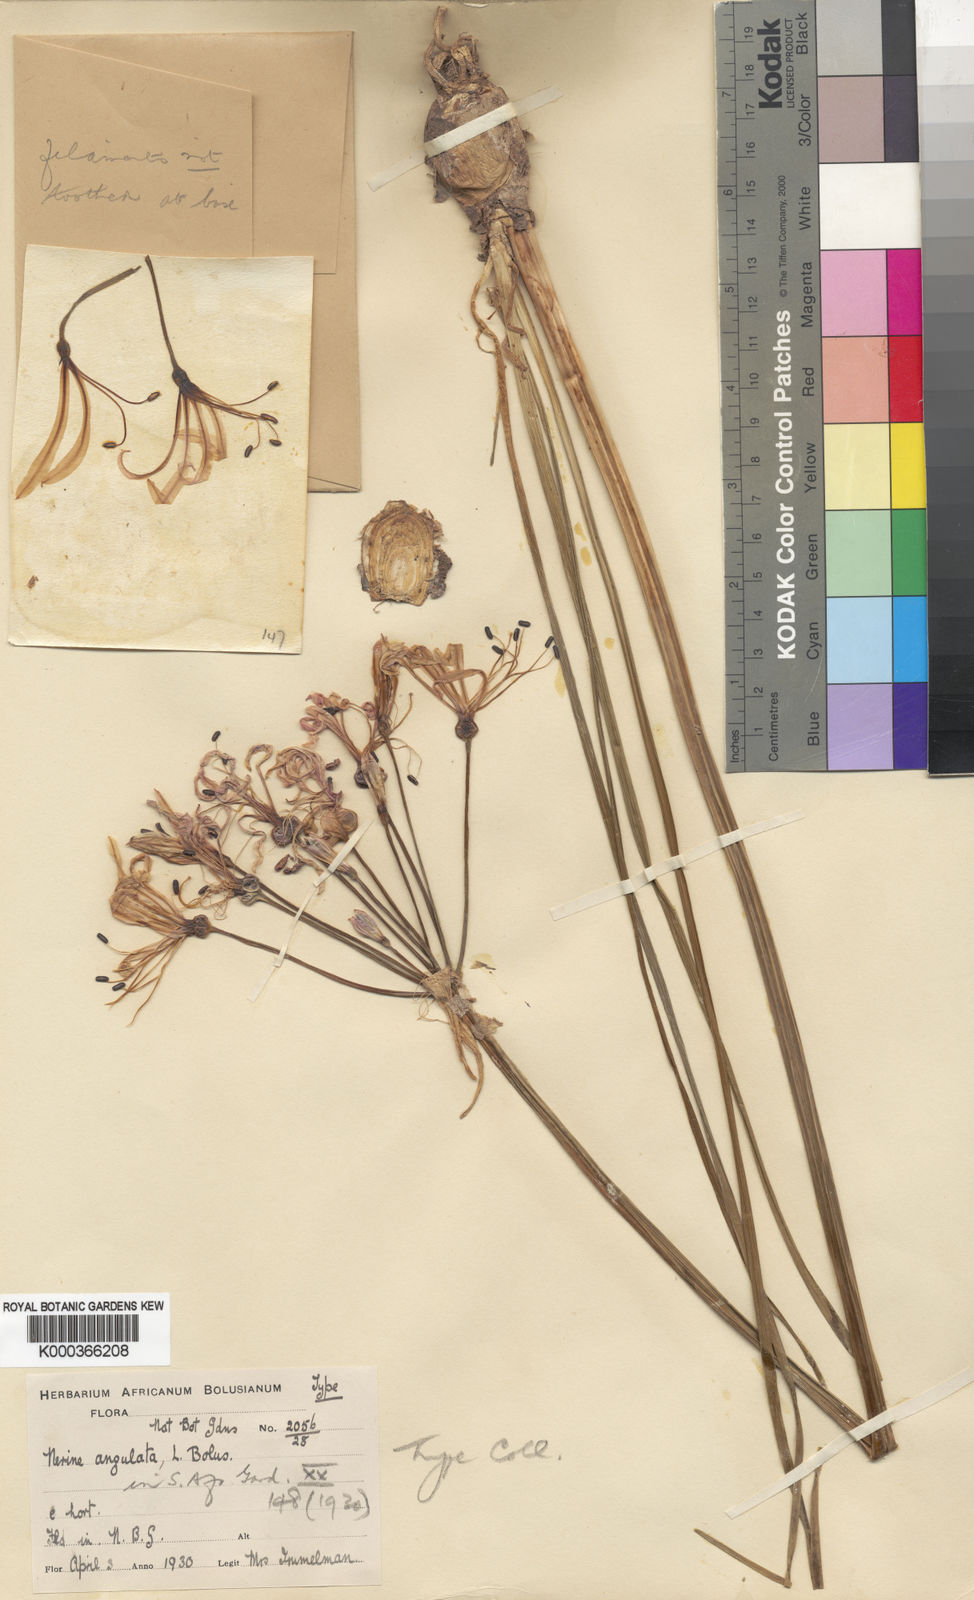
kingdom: Plantae
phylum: Tracheophyta
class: Liliopsida
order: Asparagales
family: Amaryllidaceae
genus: Nerine
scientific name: Nerine angustifolia
